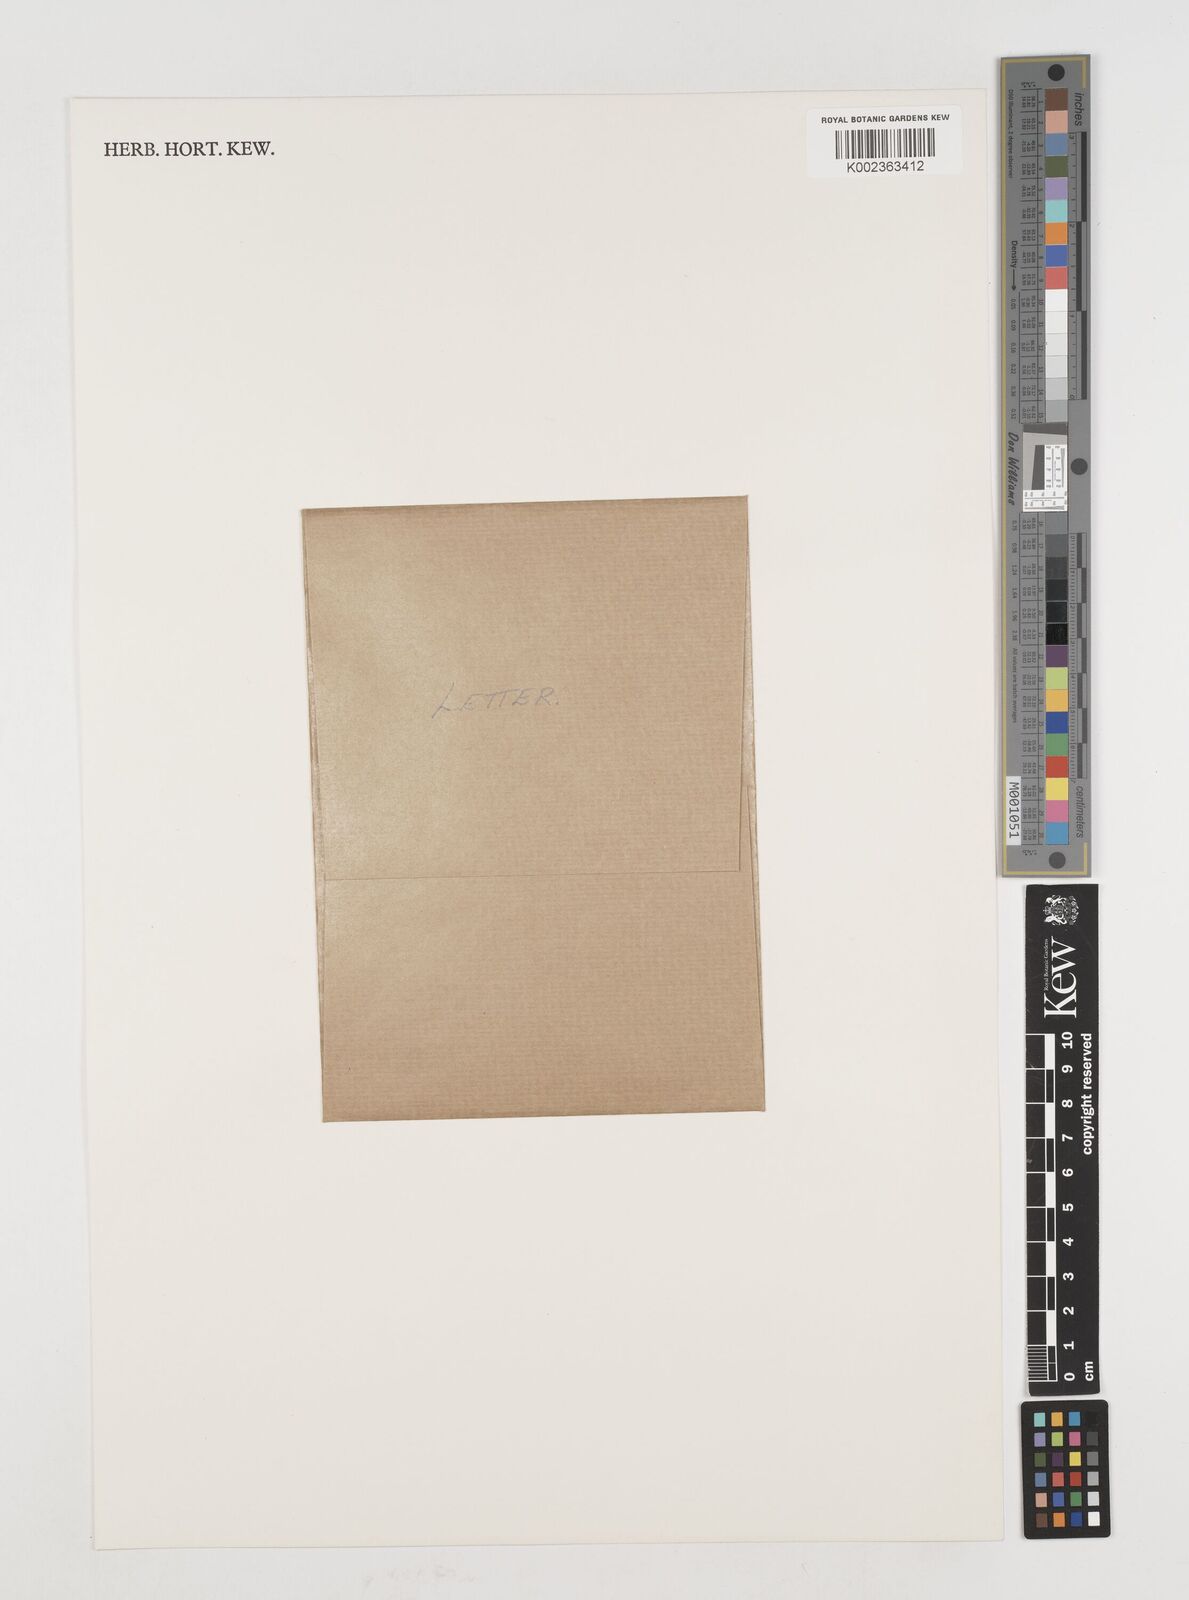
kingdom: Plantae
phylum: Tracheophyta
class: Liliopsida
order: Poales
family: Poaceae
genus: Himalayacalamus
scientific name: Himalayacalamus falconeri
